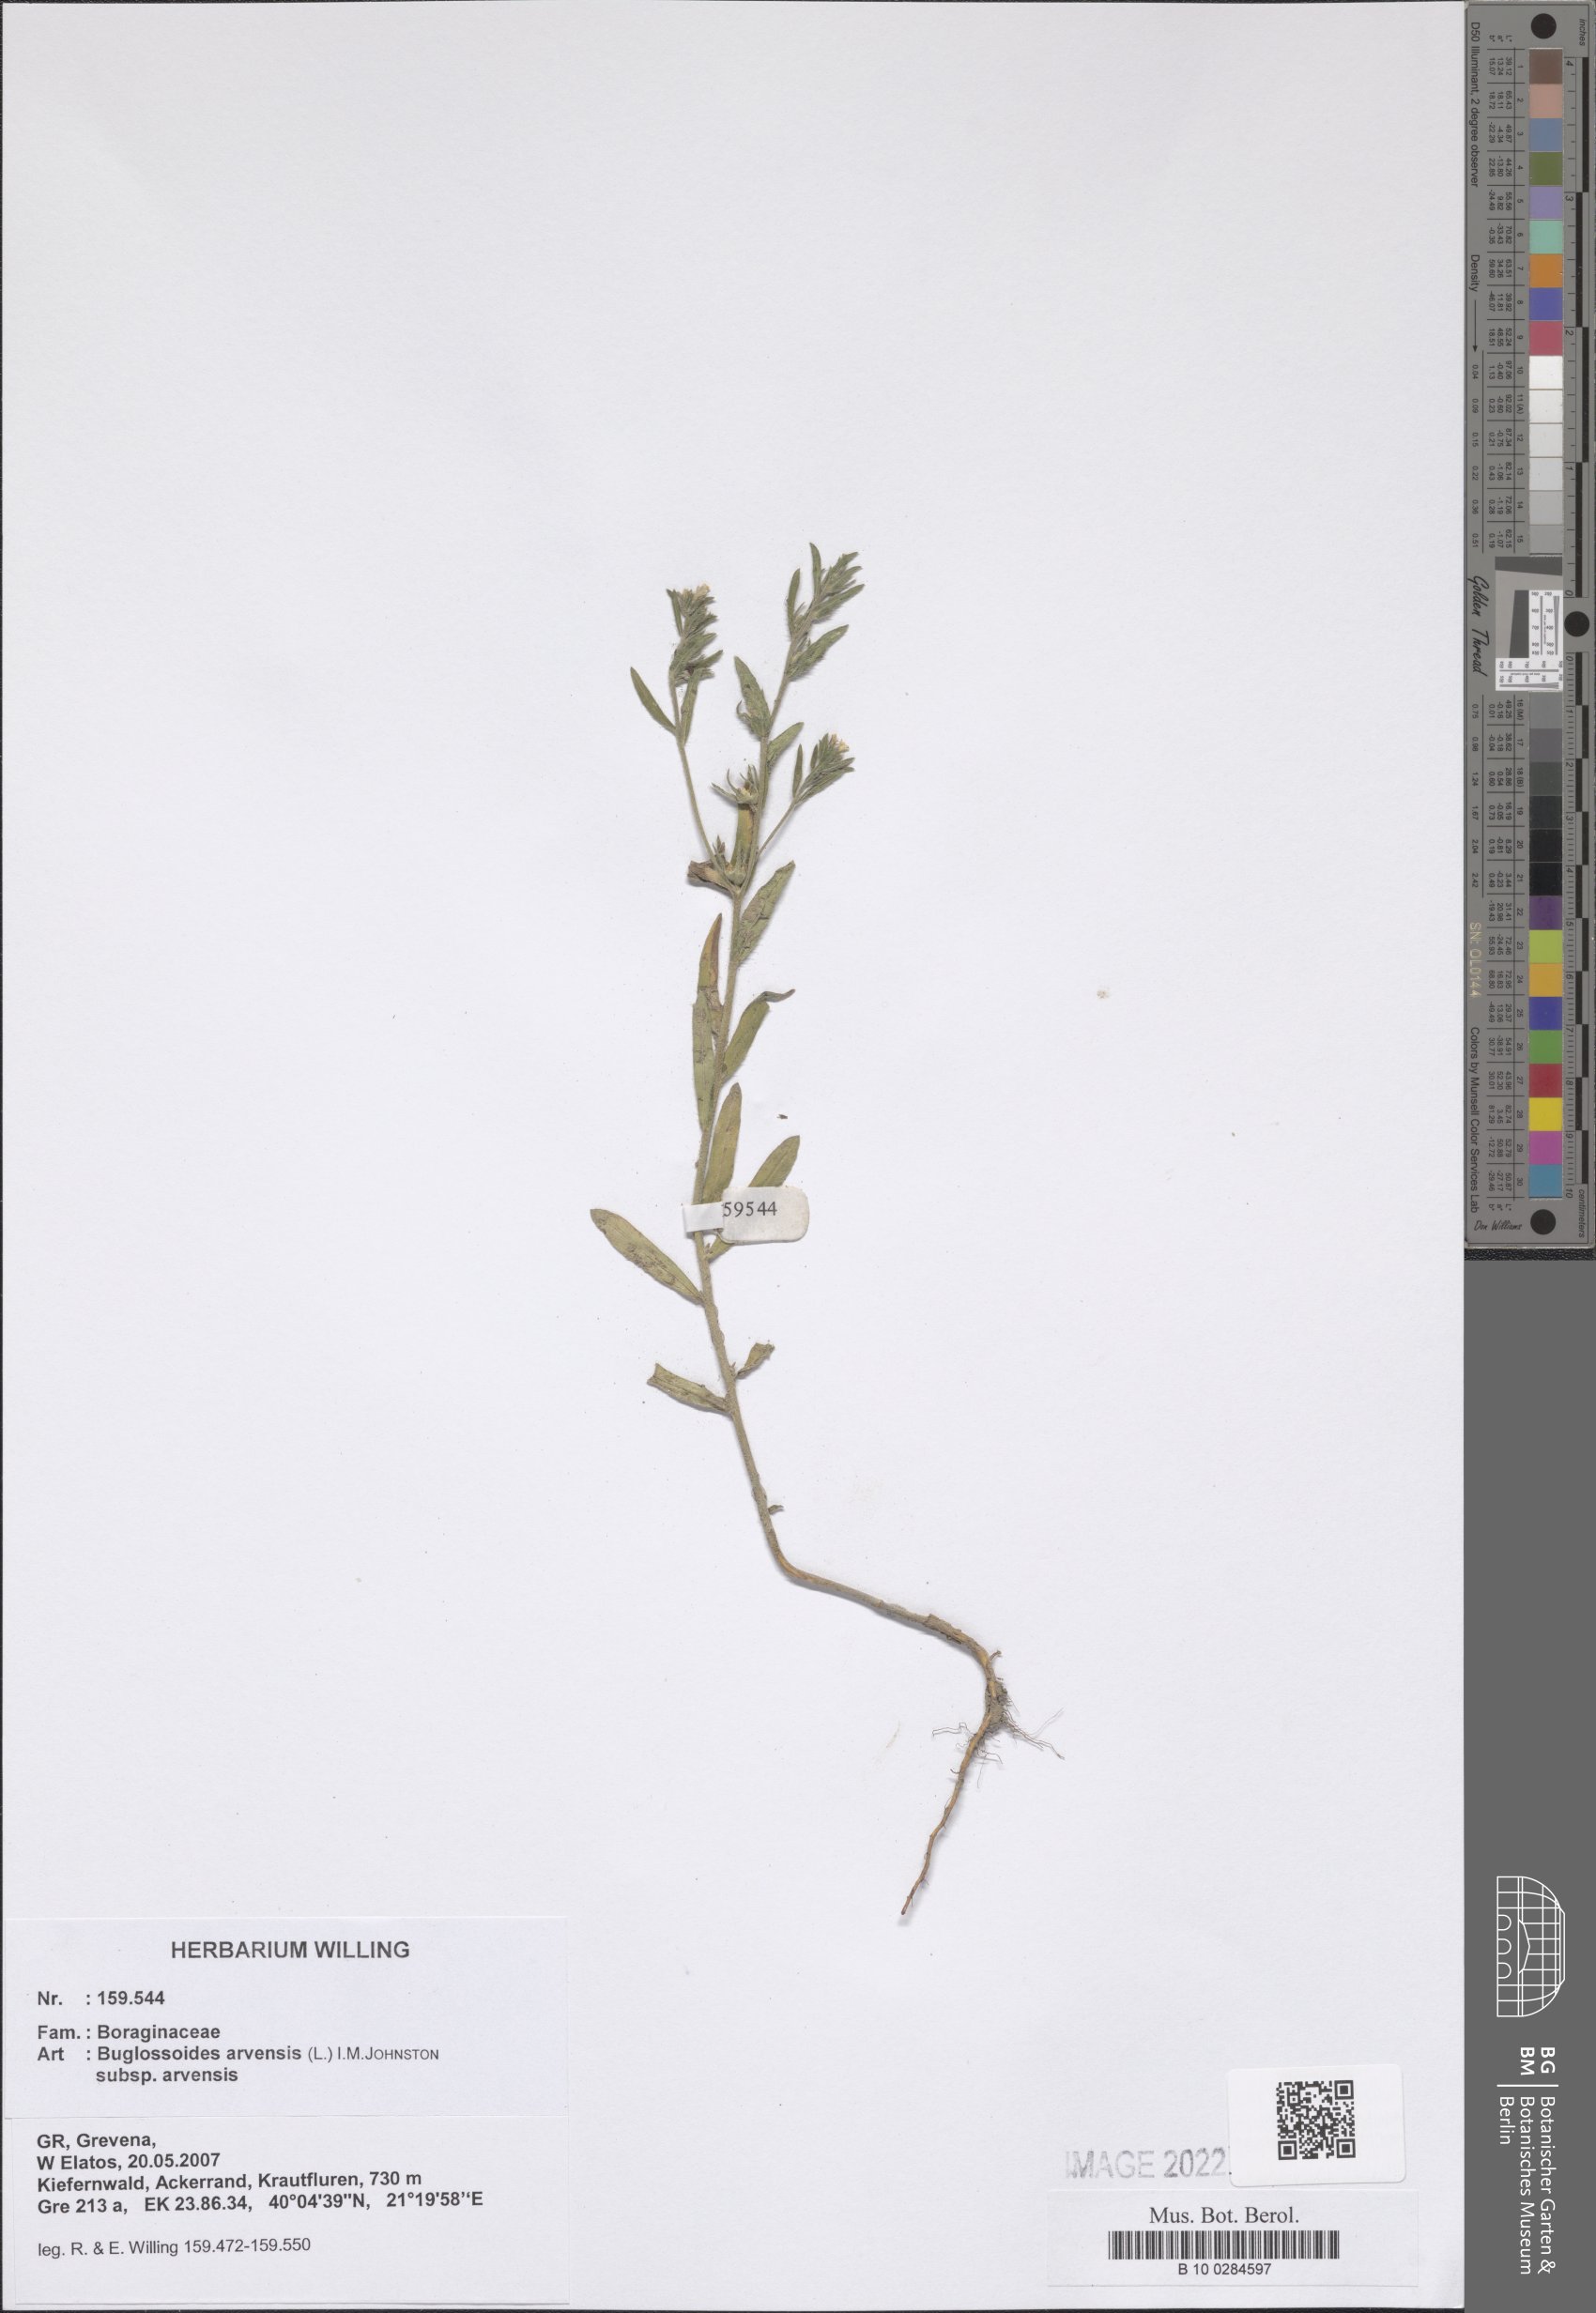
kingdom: Plantae
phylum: Tracheophyta
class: Magnoliopsida
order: Boraginales
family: Boraginaceae
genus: Buglossoides
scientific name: Buglossoides arvensis
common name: Corn gromwell
